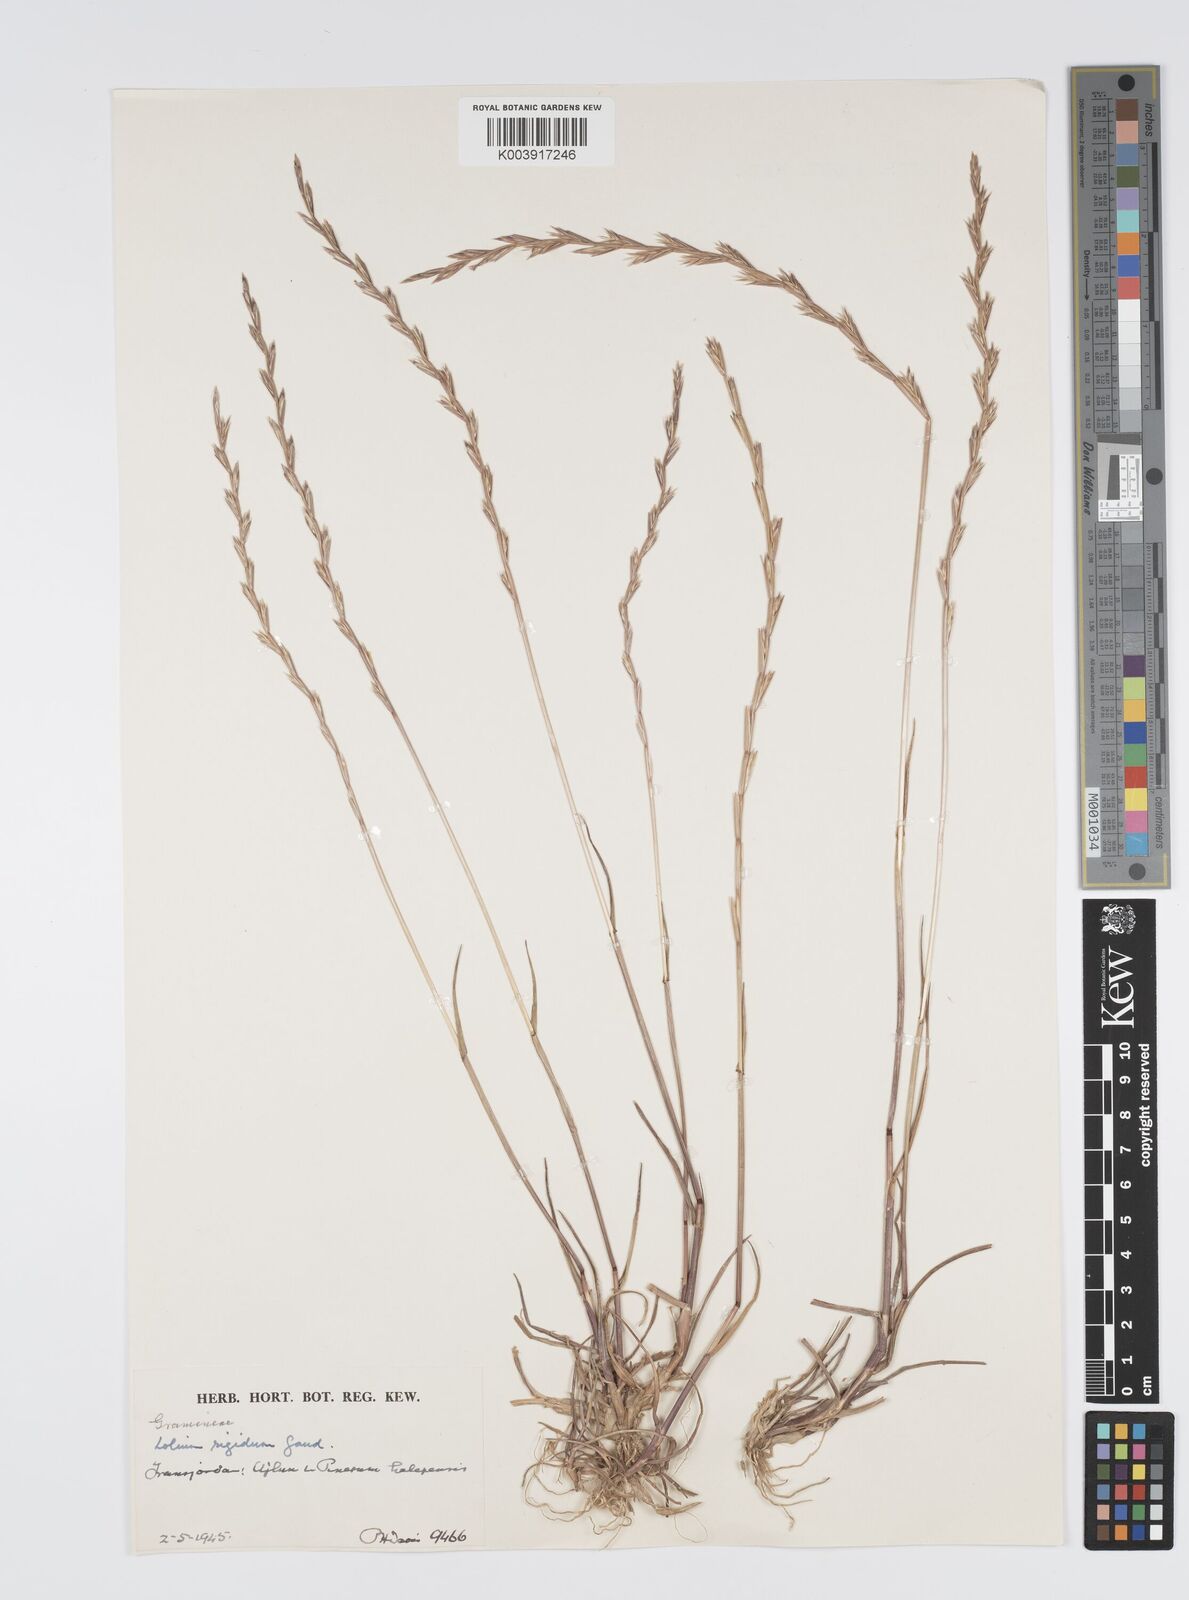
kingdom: Plantae
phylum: Tracheophyta
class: Liliopsida
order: Poales
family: Poaceae
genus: Lolium
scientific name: Lolium rigidum
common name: Wimmera ryegrass
